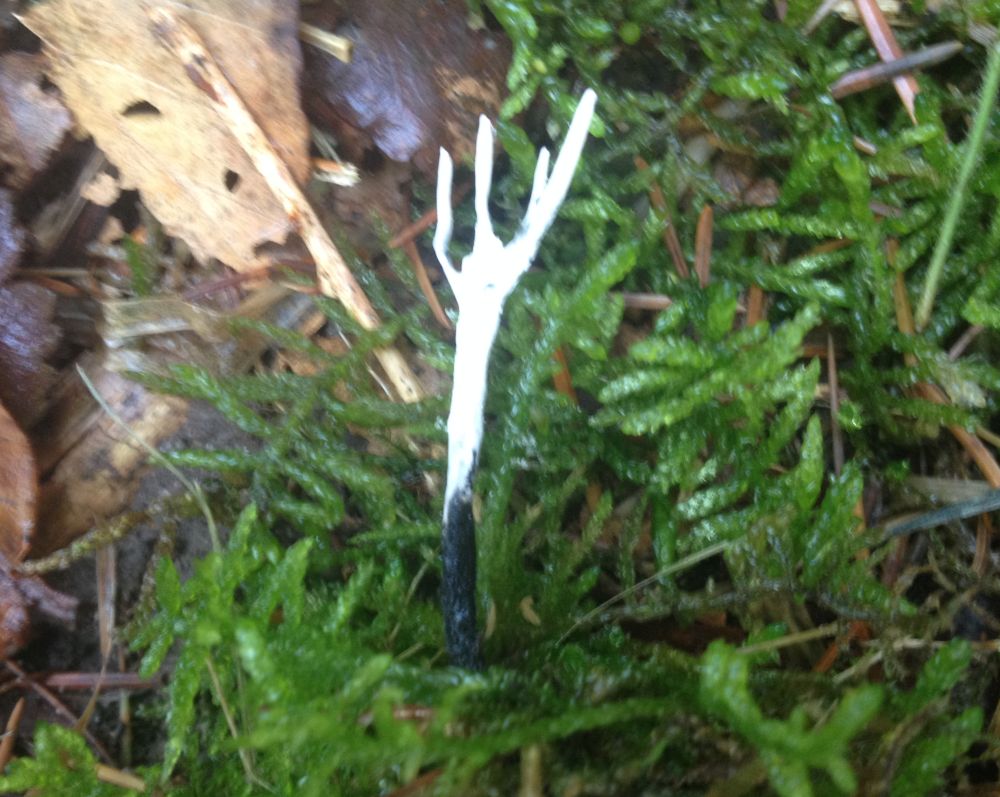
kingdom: Fungi
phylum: Ascomycota
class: Sordariomycetes
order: Xylariales
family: Xylariaceae
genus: Xylaria
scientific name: Xylaria hypoxylon
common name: grenet stødsvamp
